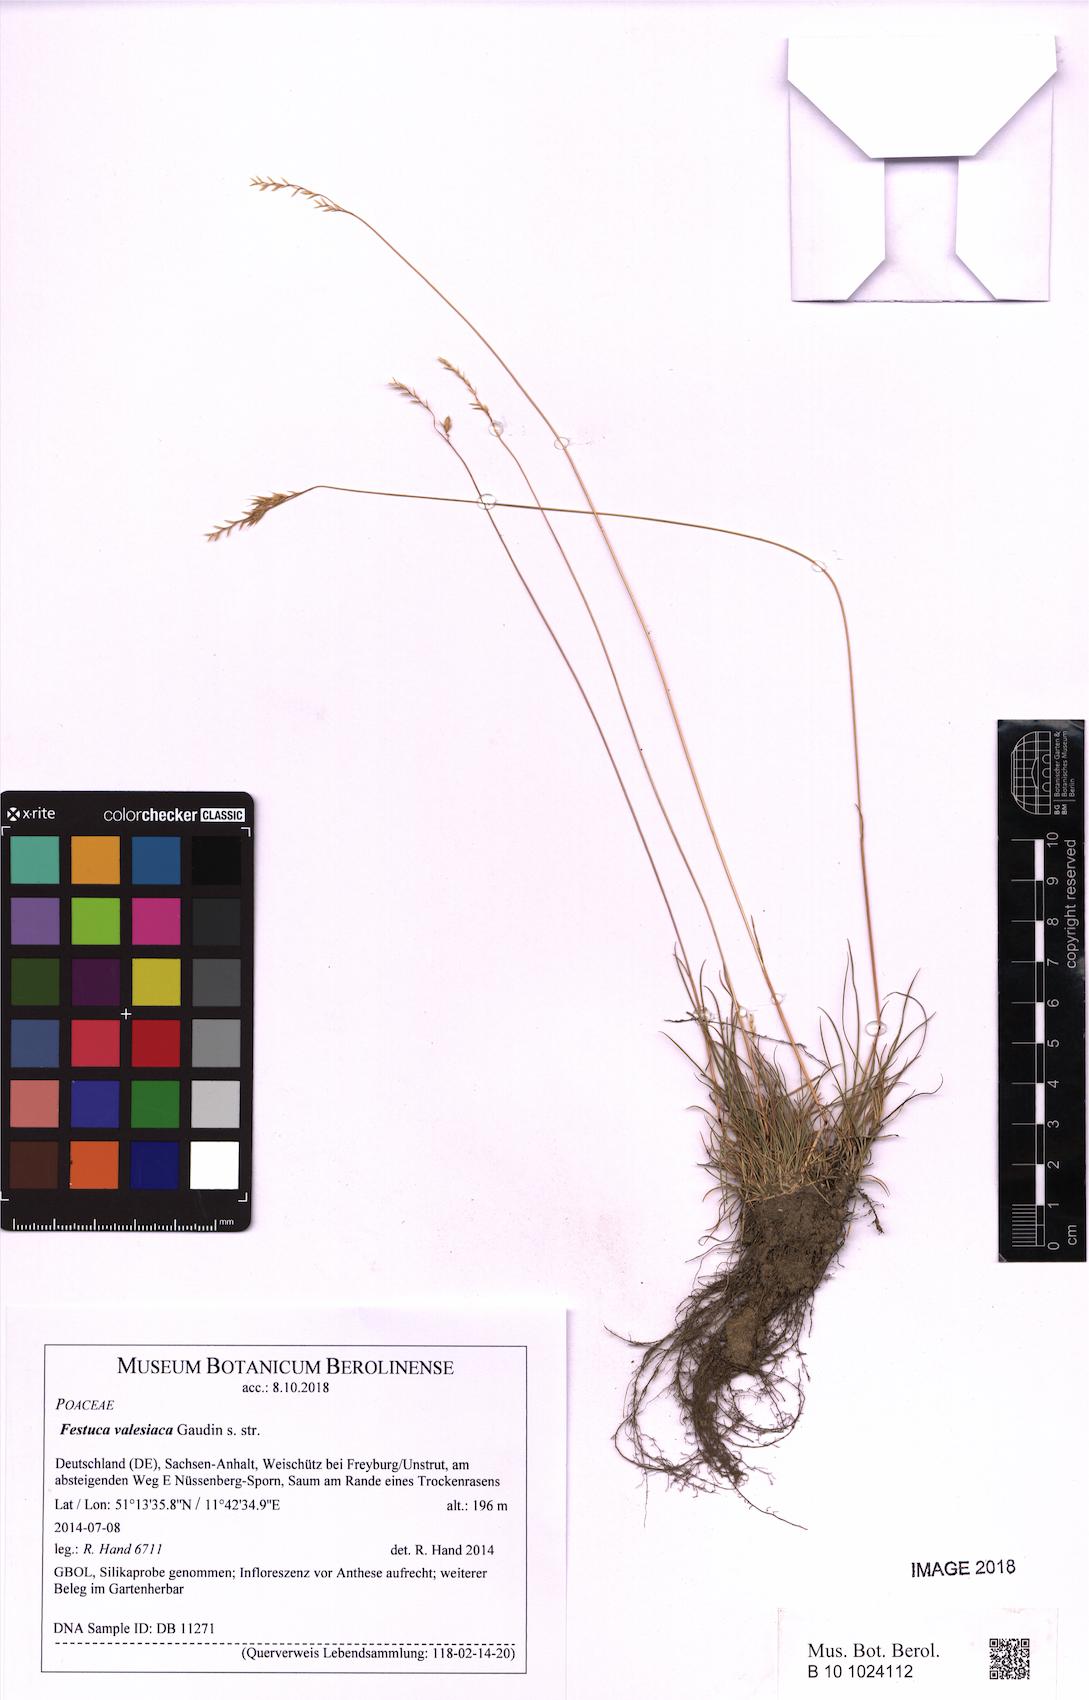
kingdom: Plantae
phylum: Tracheophyta
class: Liliopsida
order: Poales
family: Poaceae
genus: Festuca
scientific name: Festuca valesiaca
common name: Volga fescue
